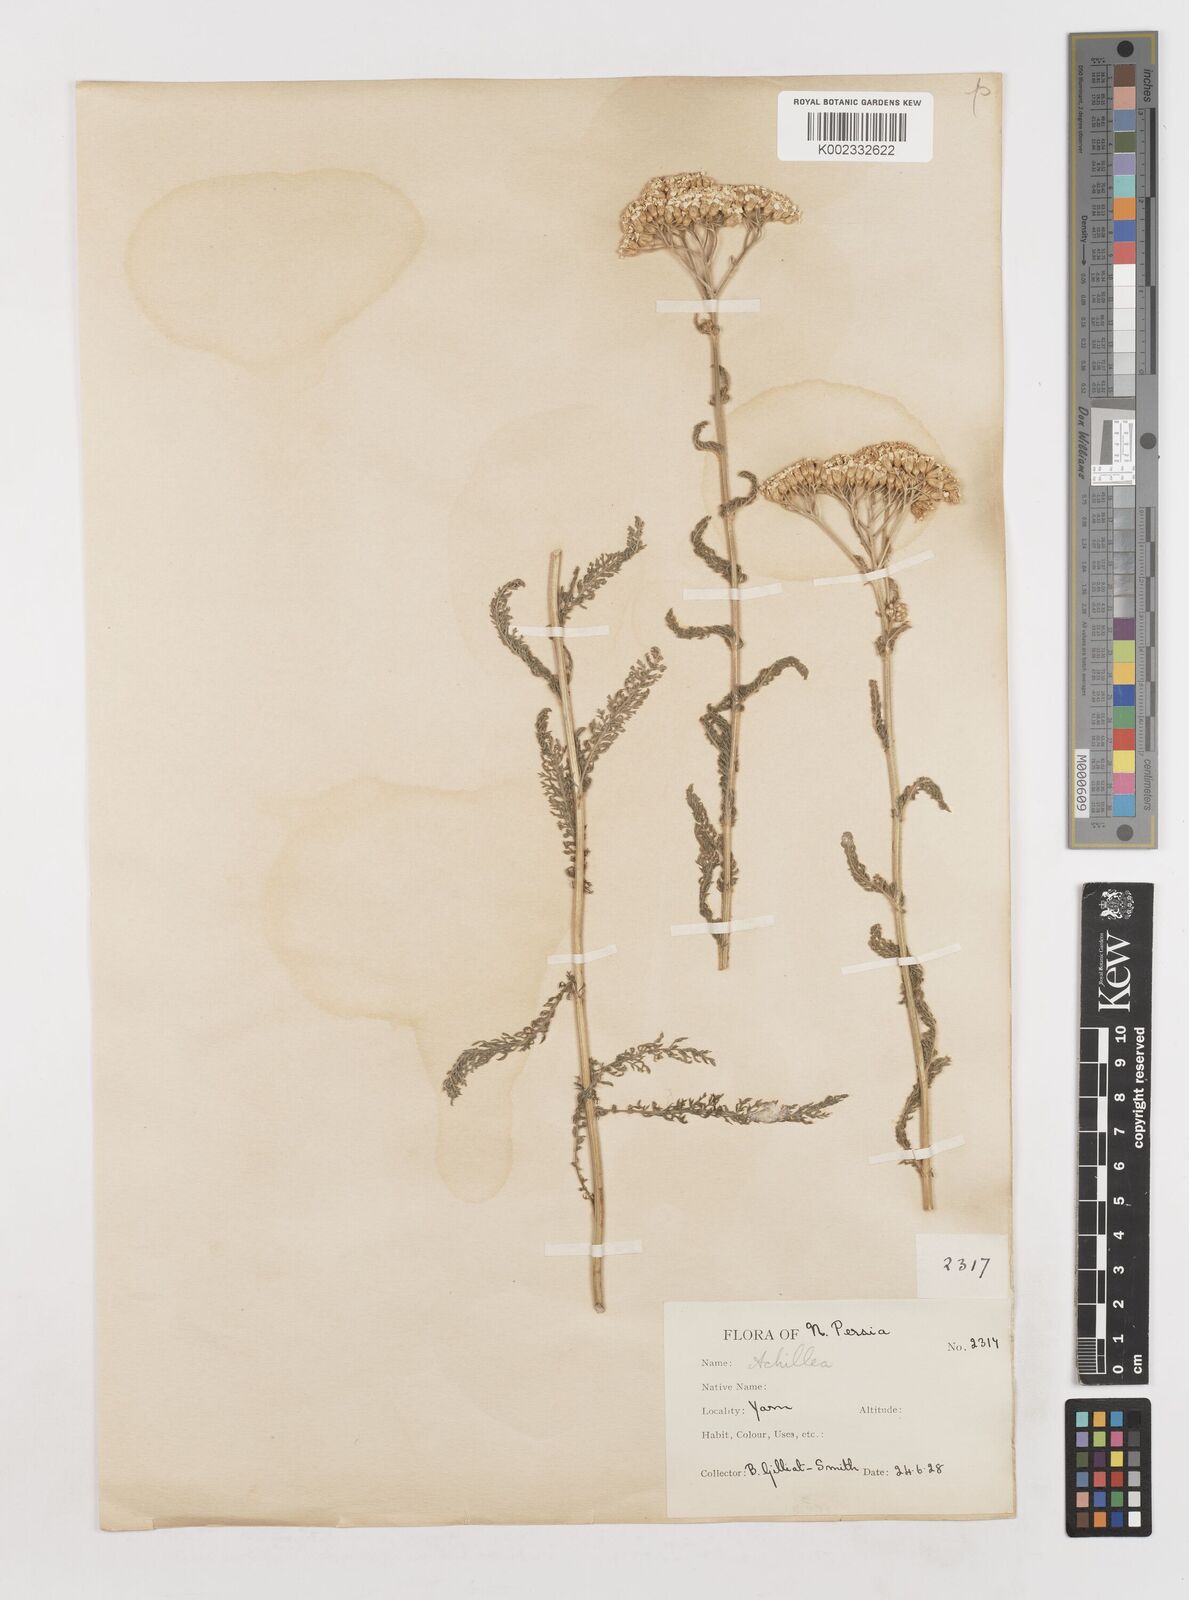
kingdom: Plantae
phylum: Tracheophyta
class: Magnoliopsida
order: Asterales
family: Asteraceae
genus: Achillea
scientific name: Achillea setacea
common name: Bristly yarrow
